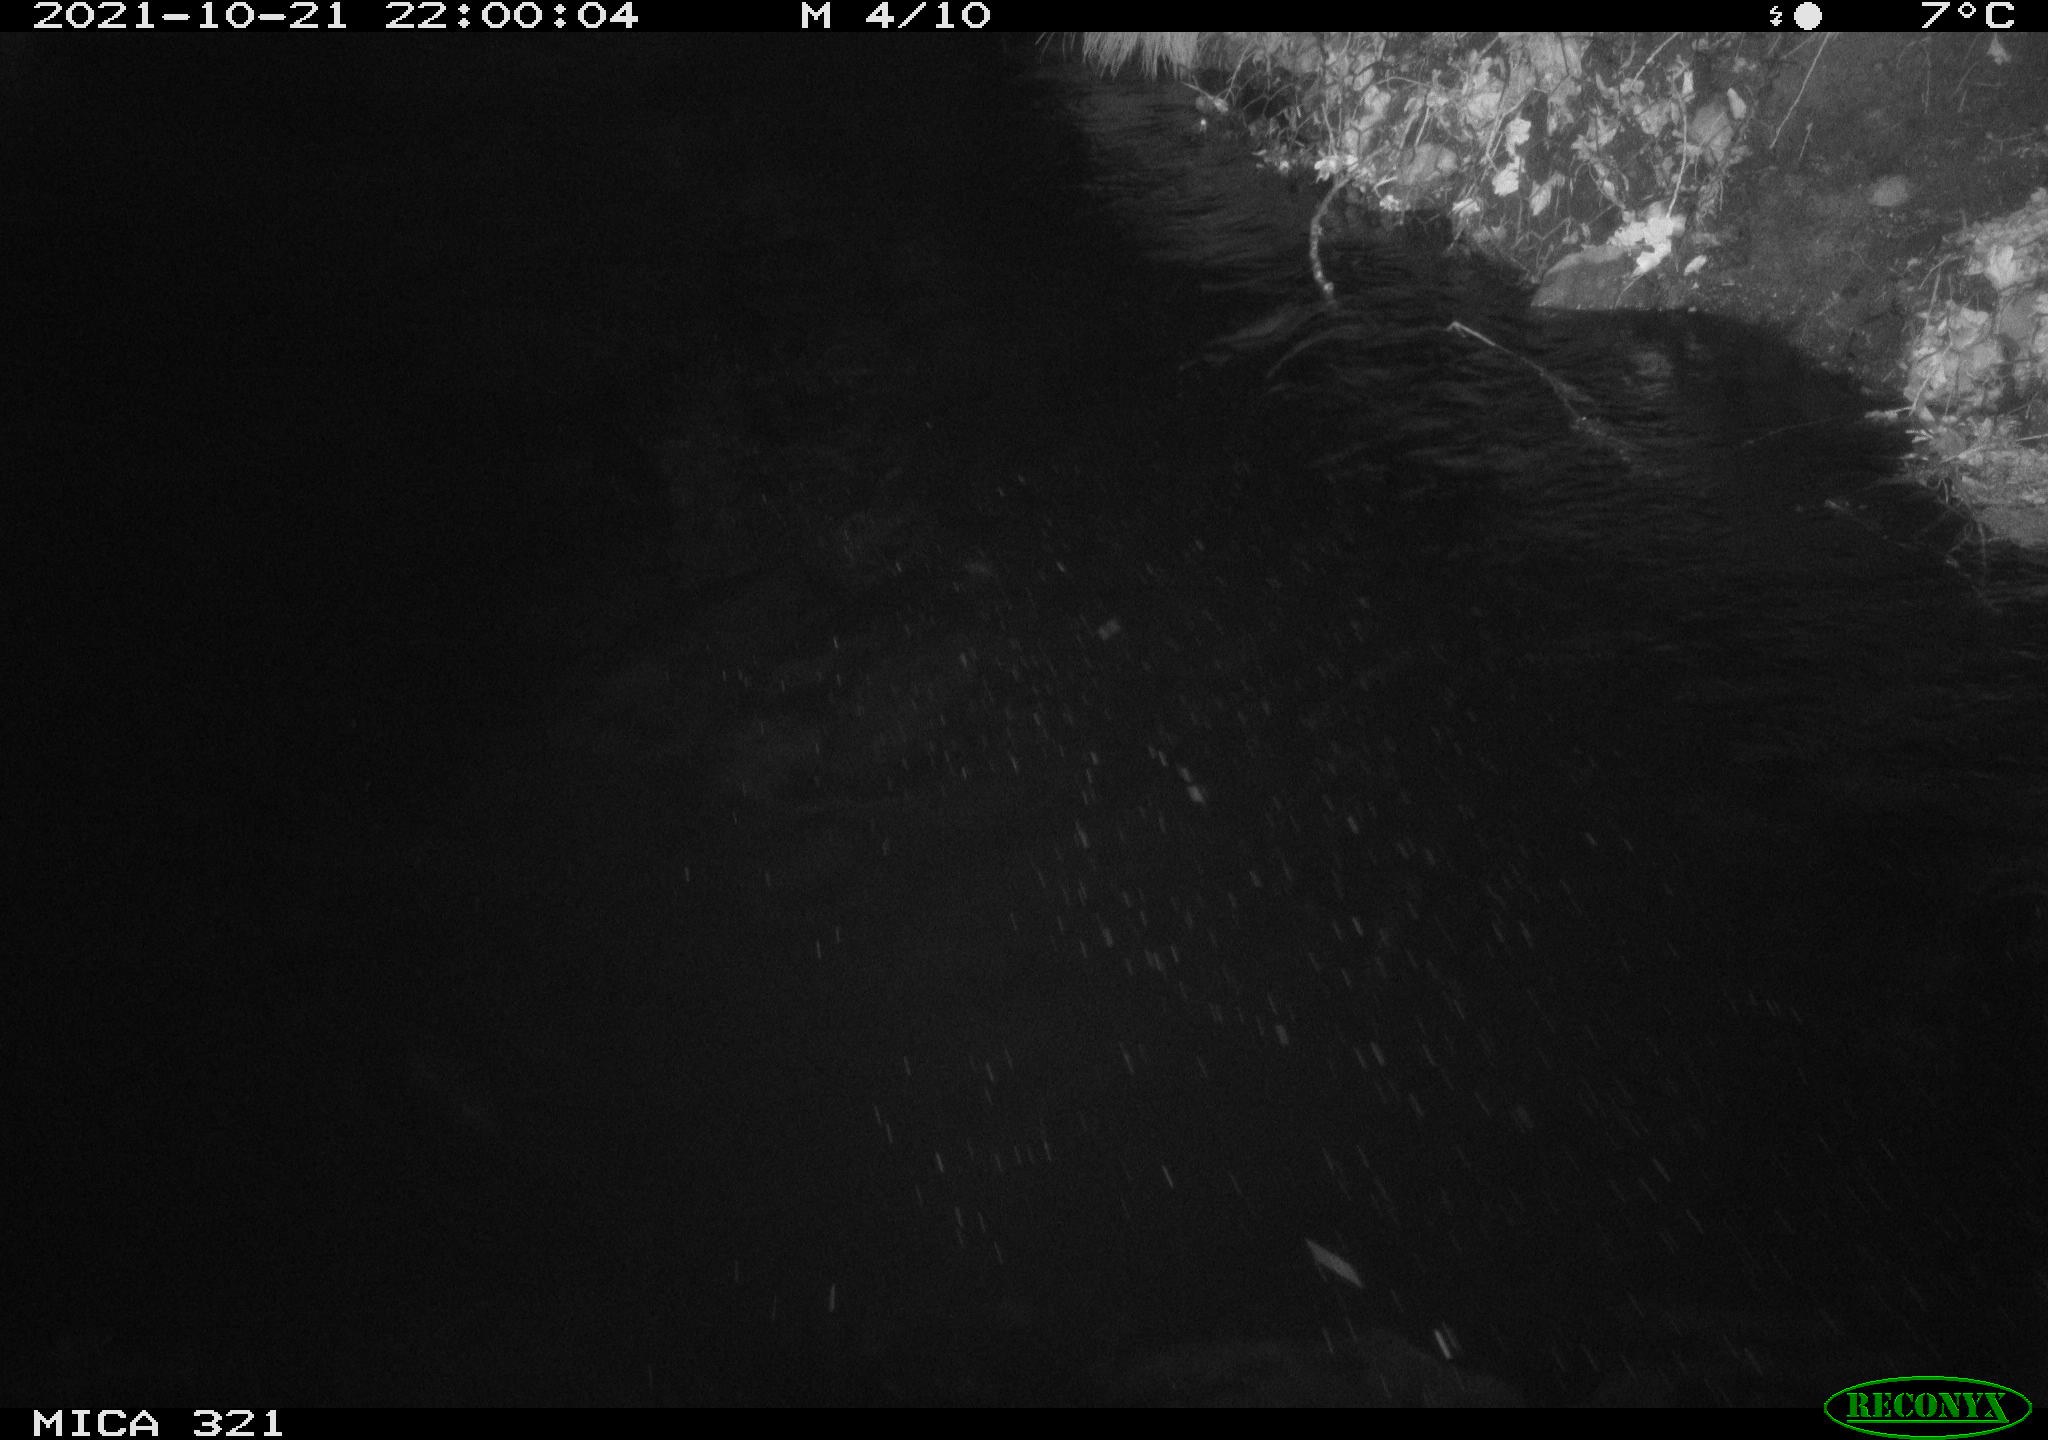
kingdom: Animalia
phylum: Chordata
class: Mammalia
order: Rodentia
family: Muridae
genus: Rattus
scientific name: Rattus norvegicus
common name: Brown rat
